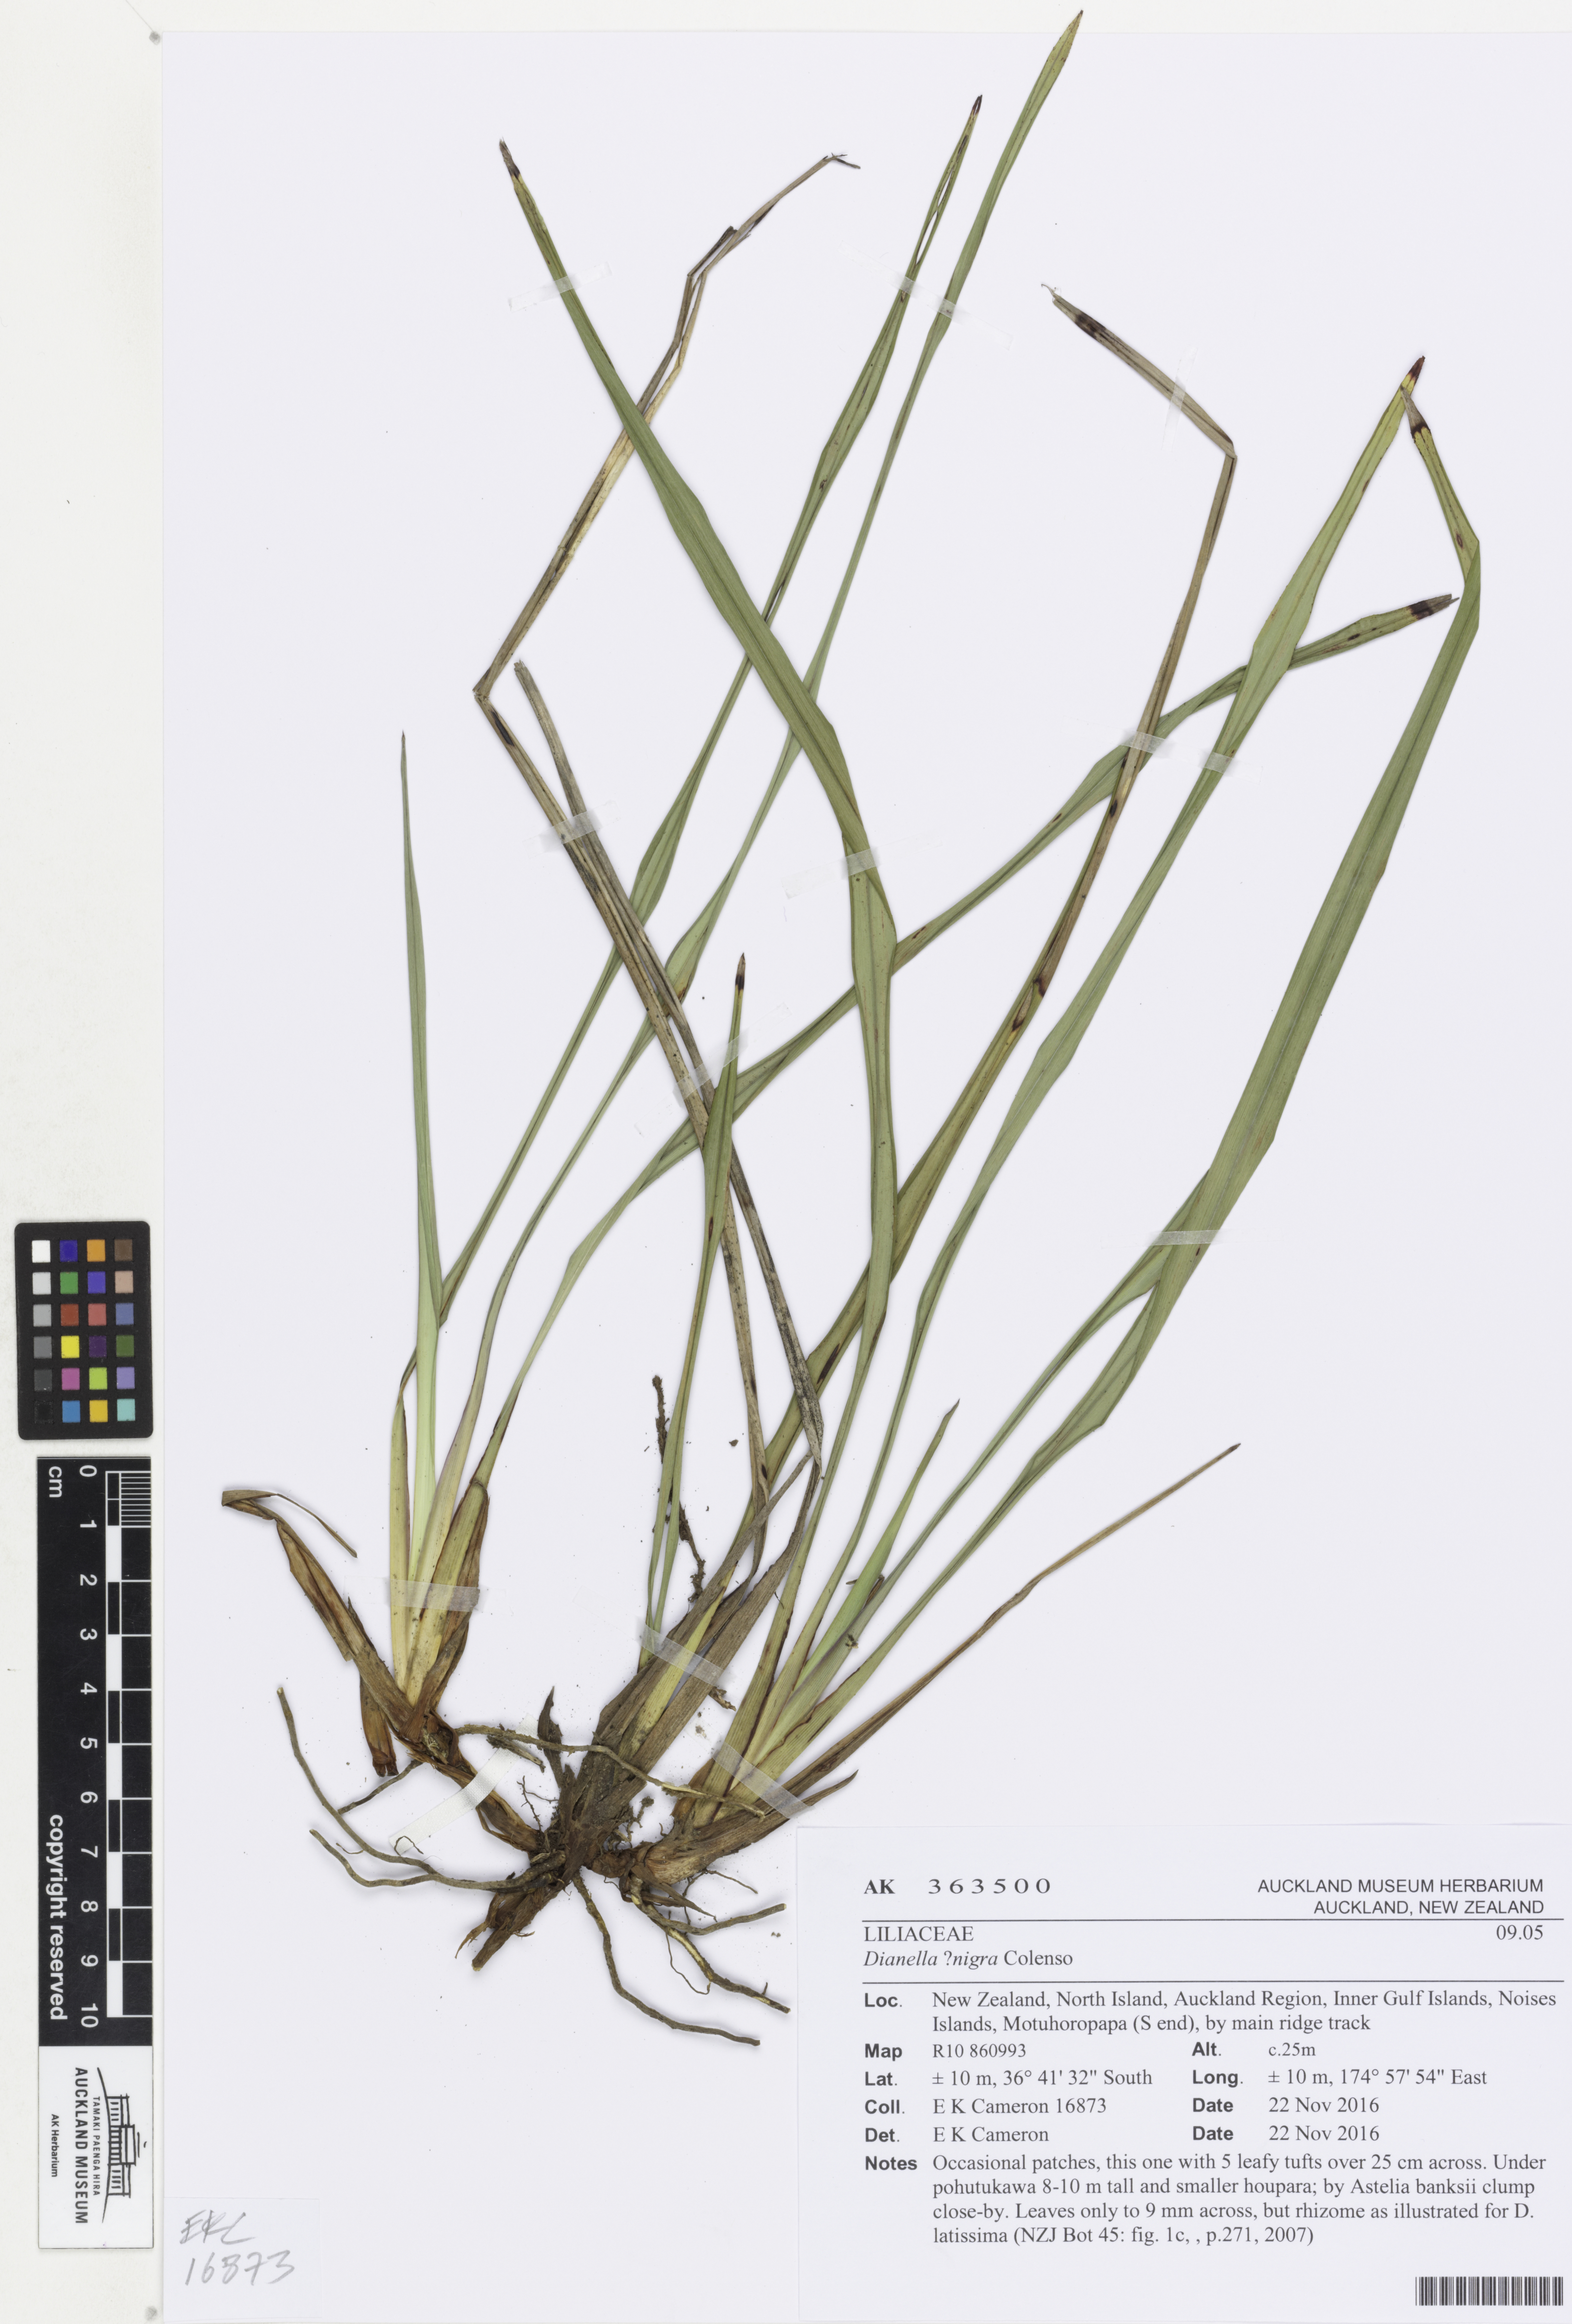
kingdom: Plantae
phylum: Tracheophyta
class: Liliopsida
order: Asparagales
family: Asphodelaceae
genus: Dianella
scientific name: Dianella nigra
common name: New zealand-blueberry
